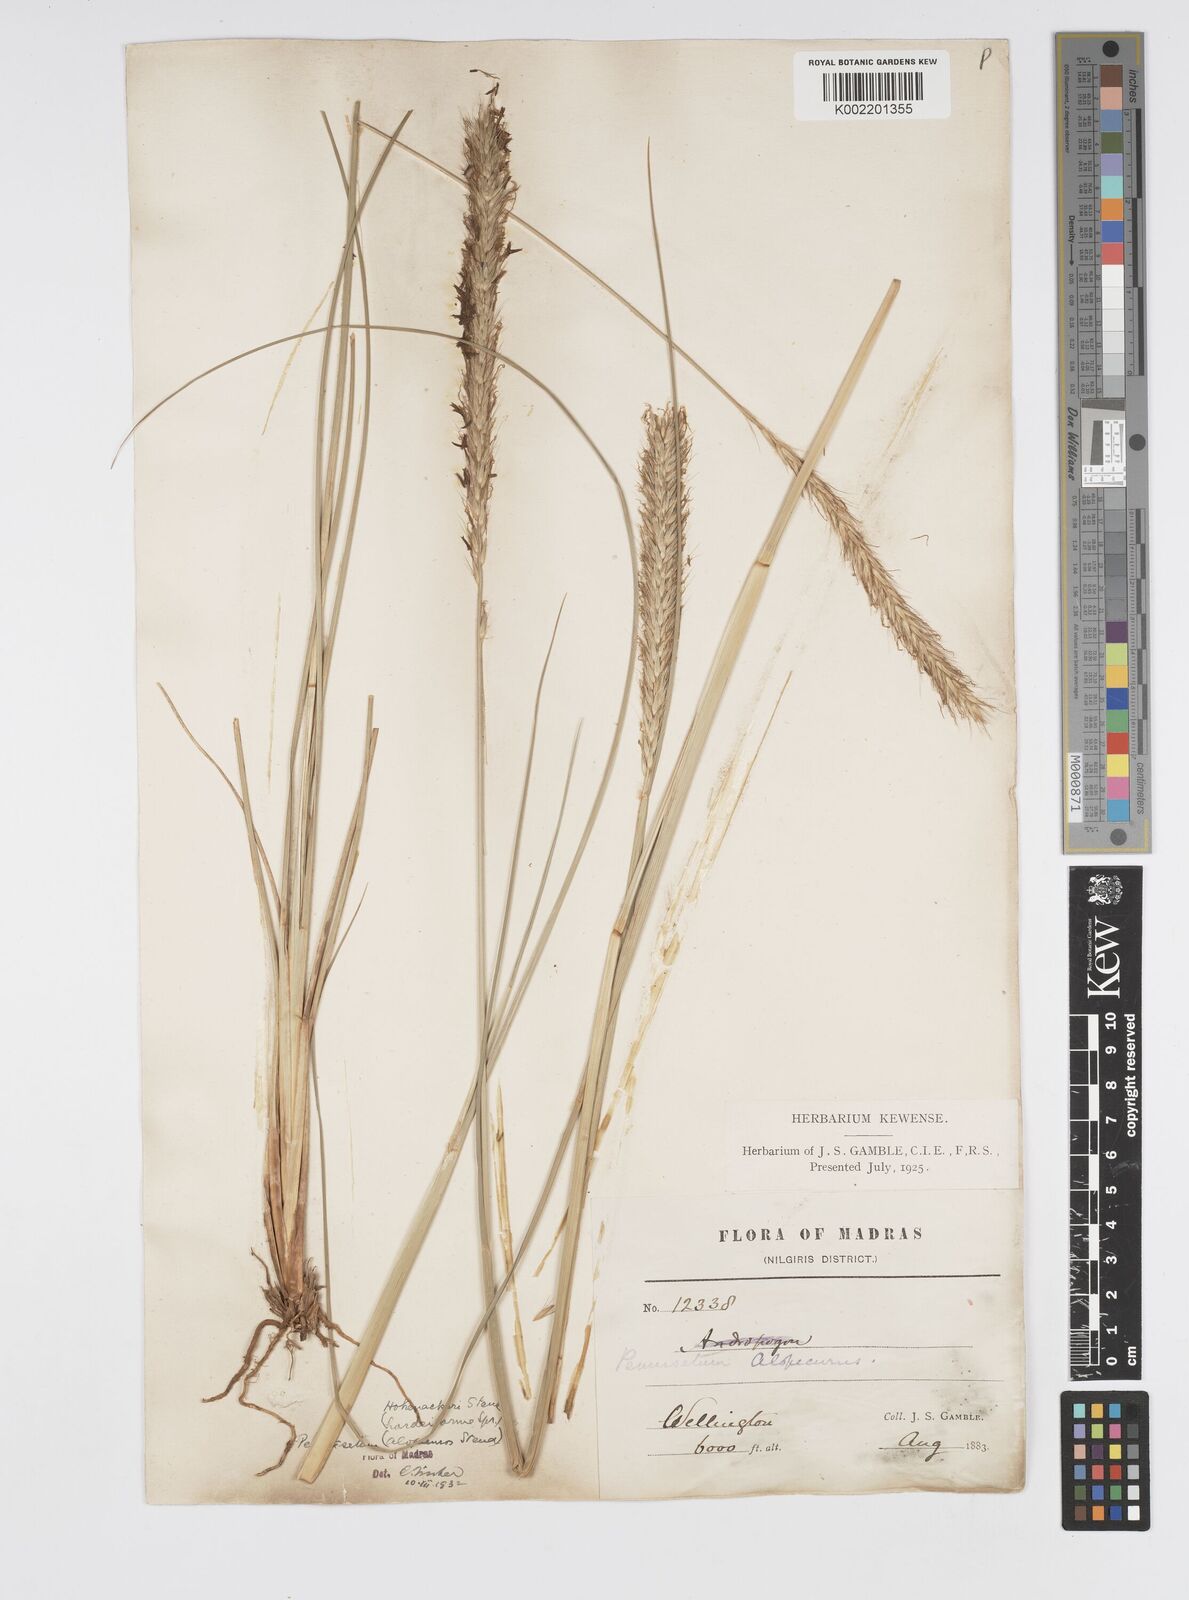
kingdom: Plantae
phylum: Tracheophyta
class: Liliopsida
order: Poales
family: Poaceae
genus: Cenchrus
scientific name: Cenchrus hohenackeri
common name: Moya grass
